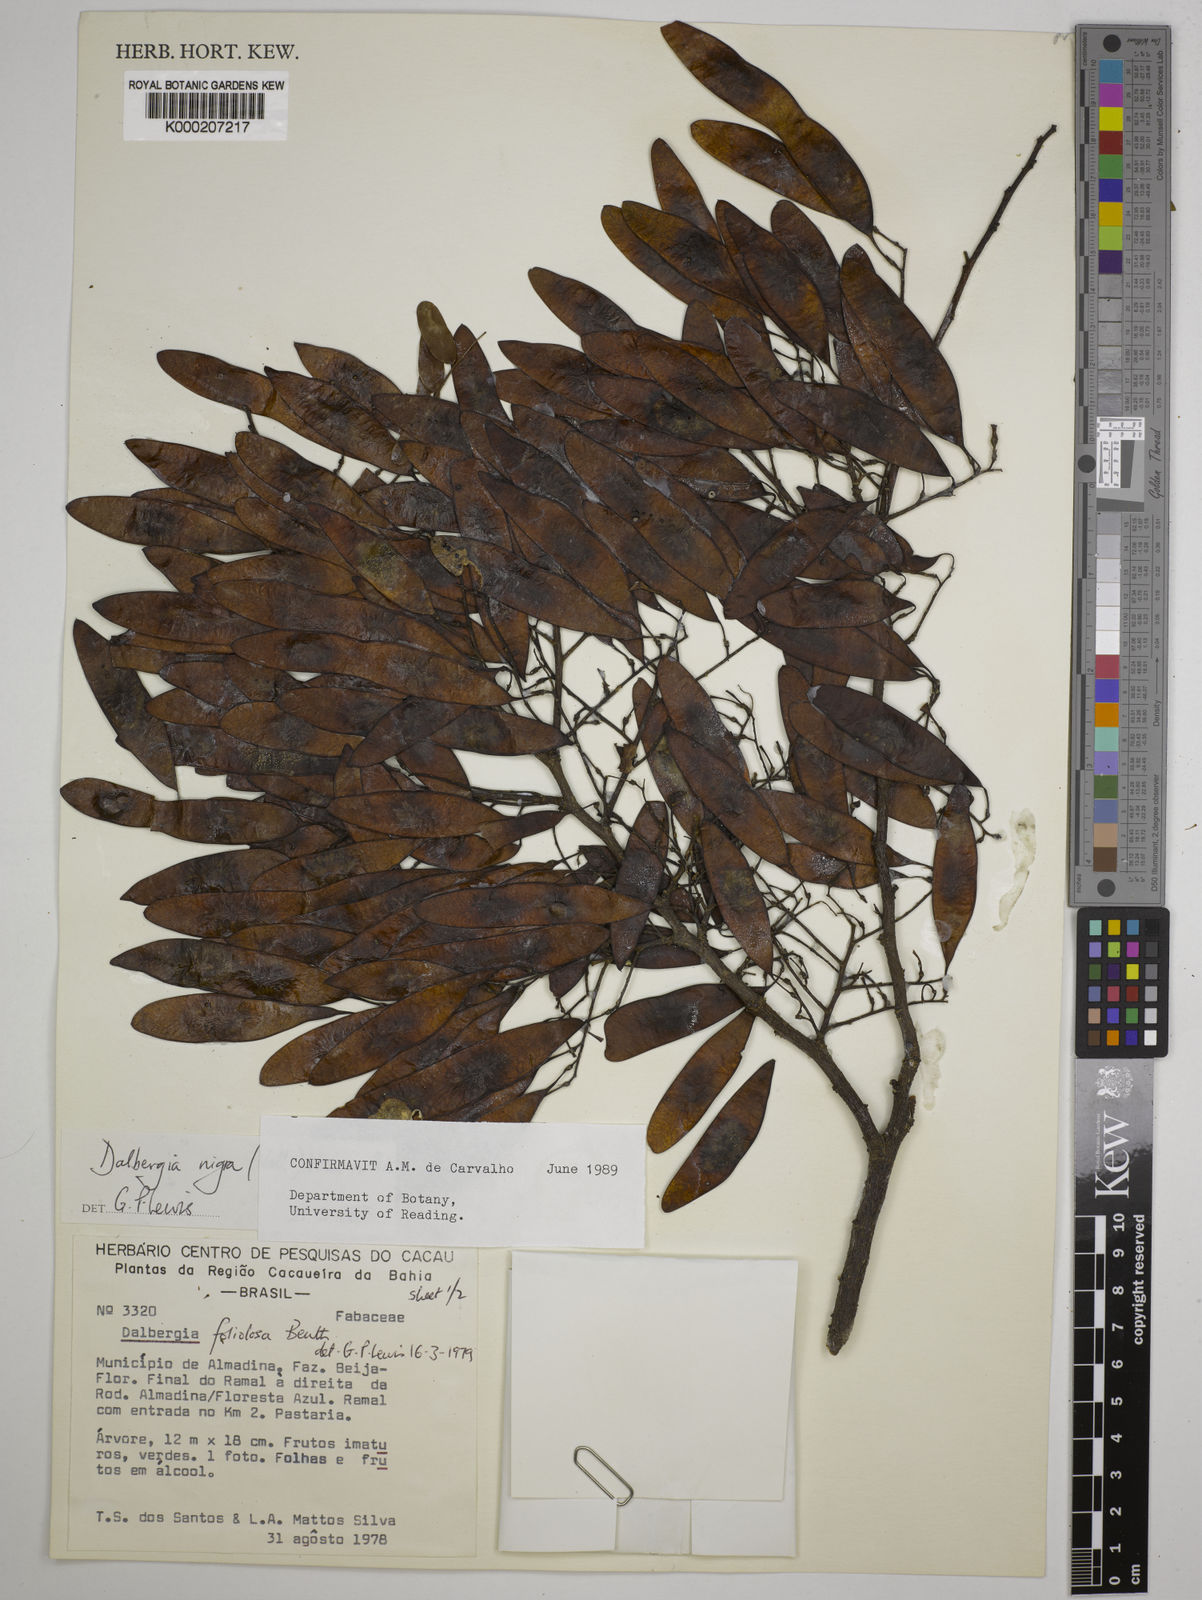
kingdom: Plantae
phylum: Tracheophyta
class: Magnoliopsida
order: Fabales
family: Fabaceae
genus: Dalbergia
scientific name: Dalbergia nigra
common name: Bahia rosewood
